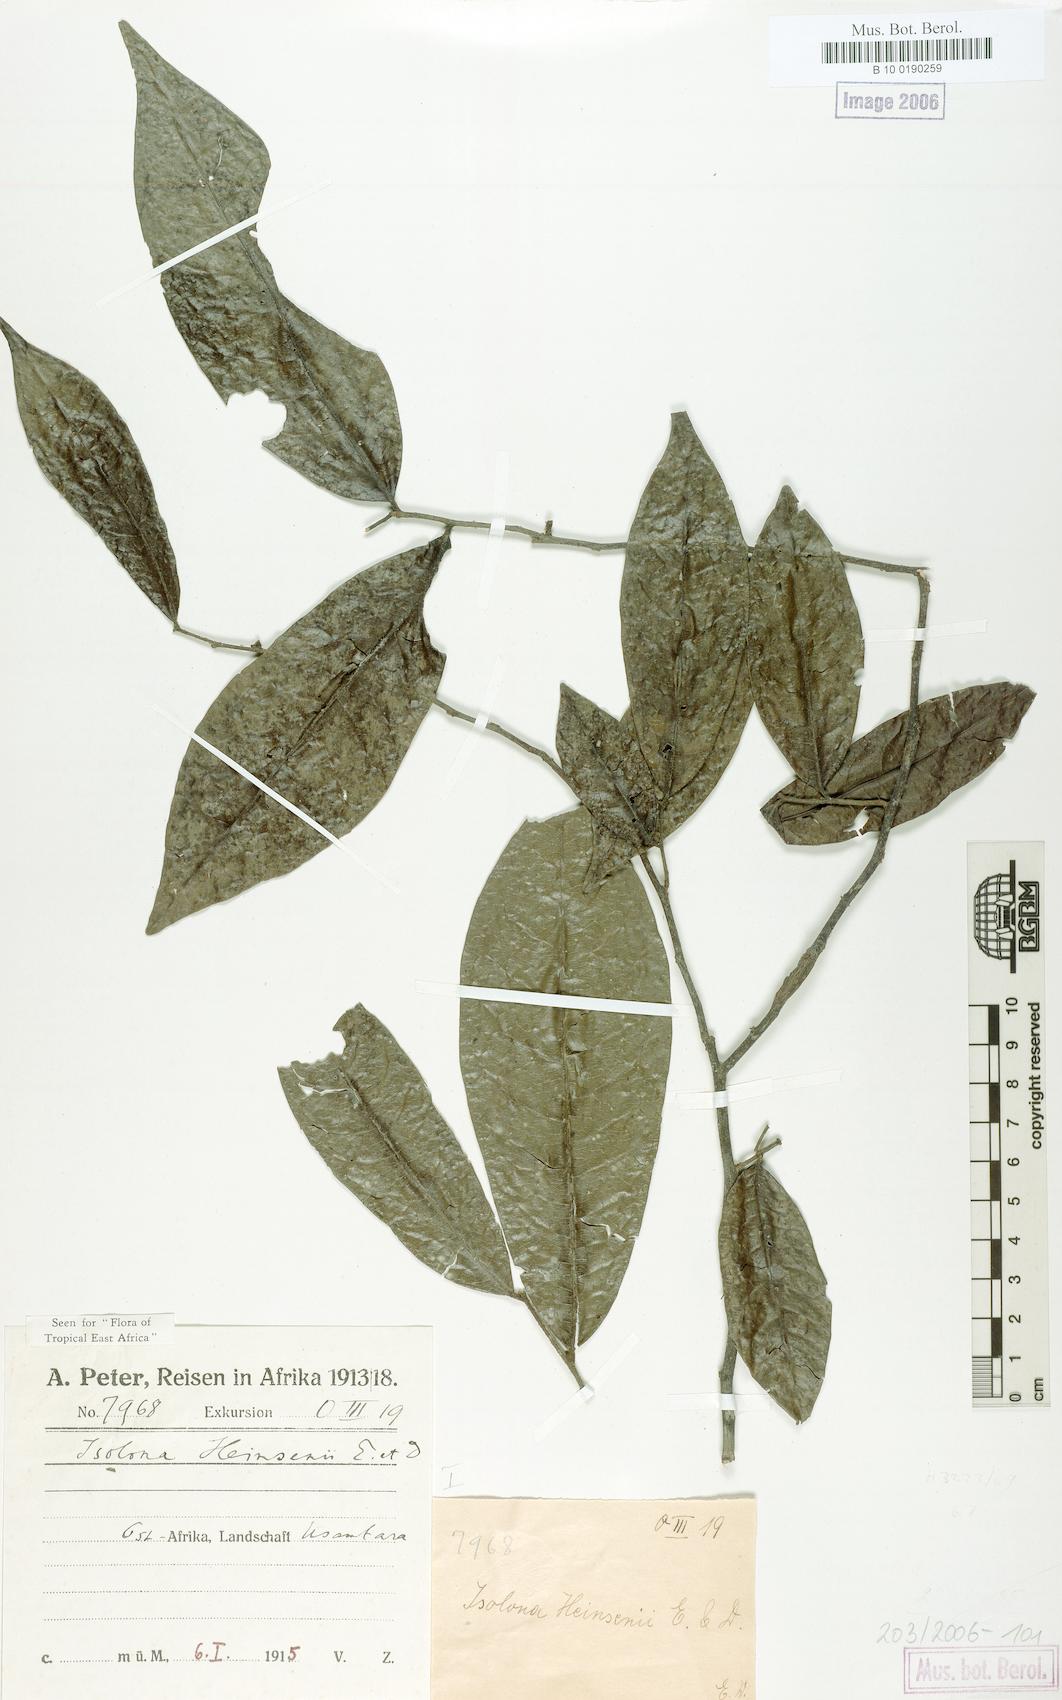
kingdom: Plantae
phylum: Tracheophyta
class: Magnoliopsida
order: Magnoliales
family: Annonaceae
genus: Isolona
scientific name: Isolona heinsenii
